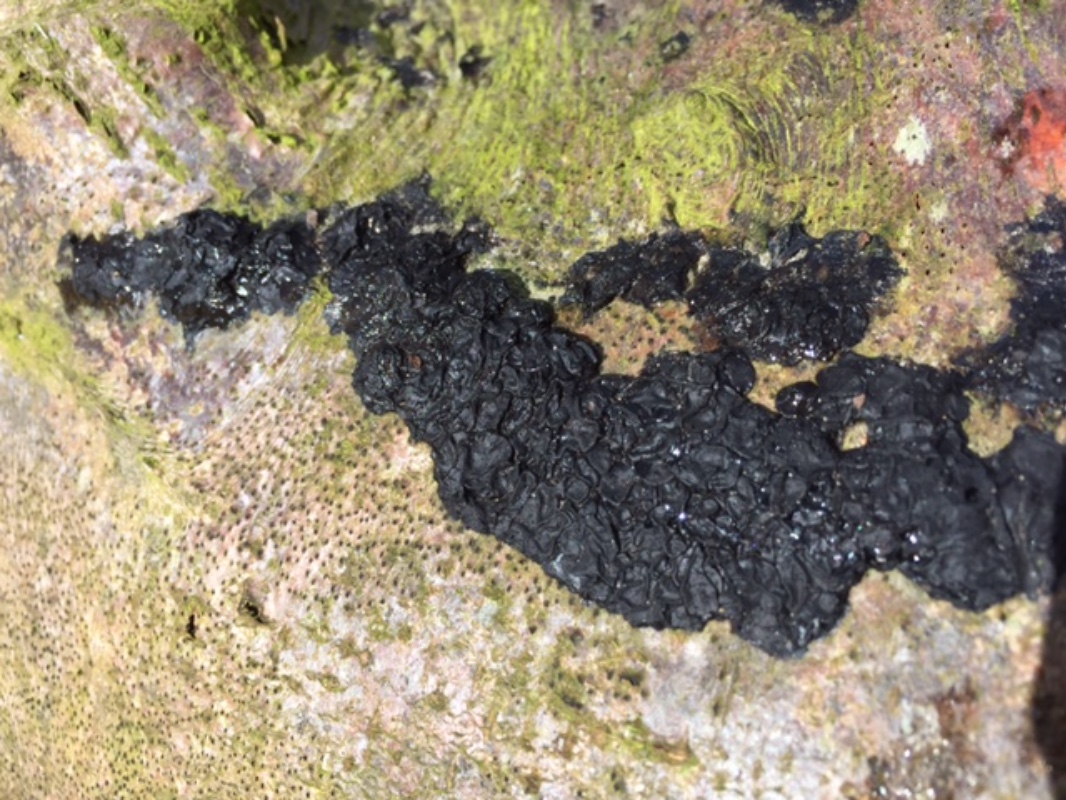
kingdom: Fungi
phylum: Basidiomycota
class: Agaricomycetes
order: Auriculariales
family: Auriculariaceae
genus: Exidia
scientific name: Exidia nigricans
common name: almindelig bævretop
